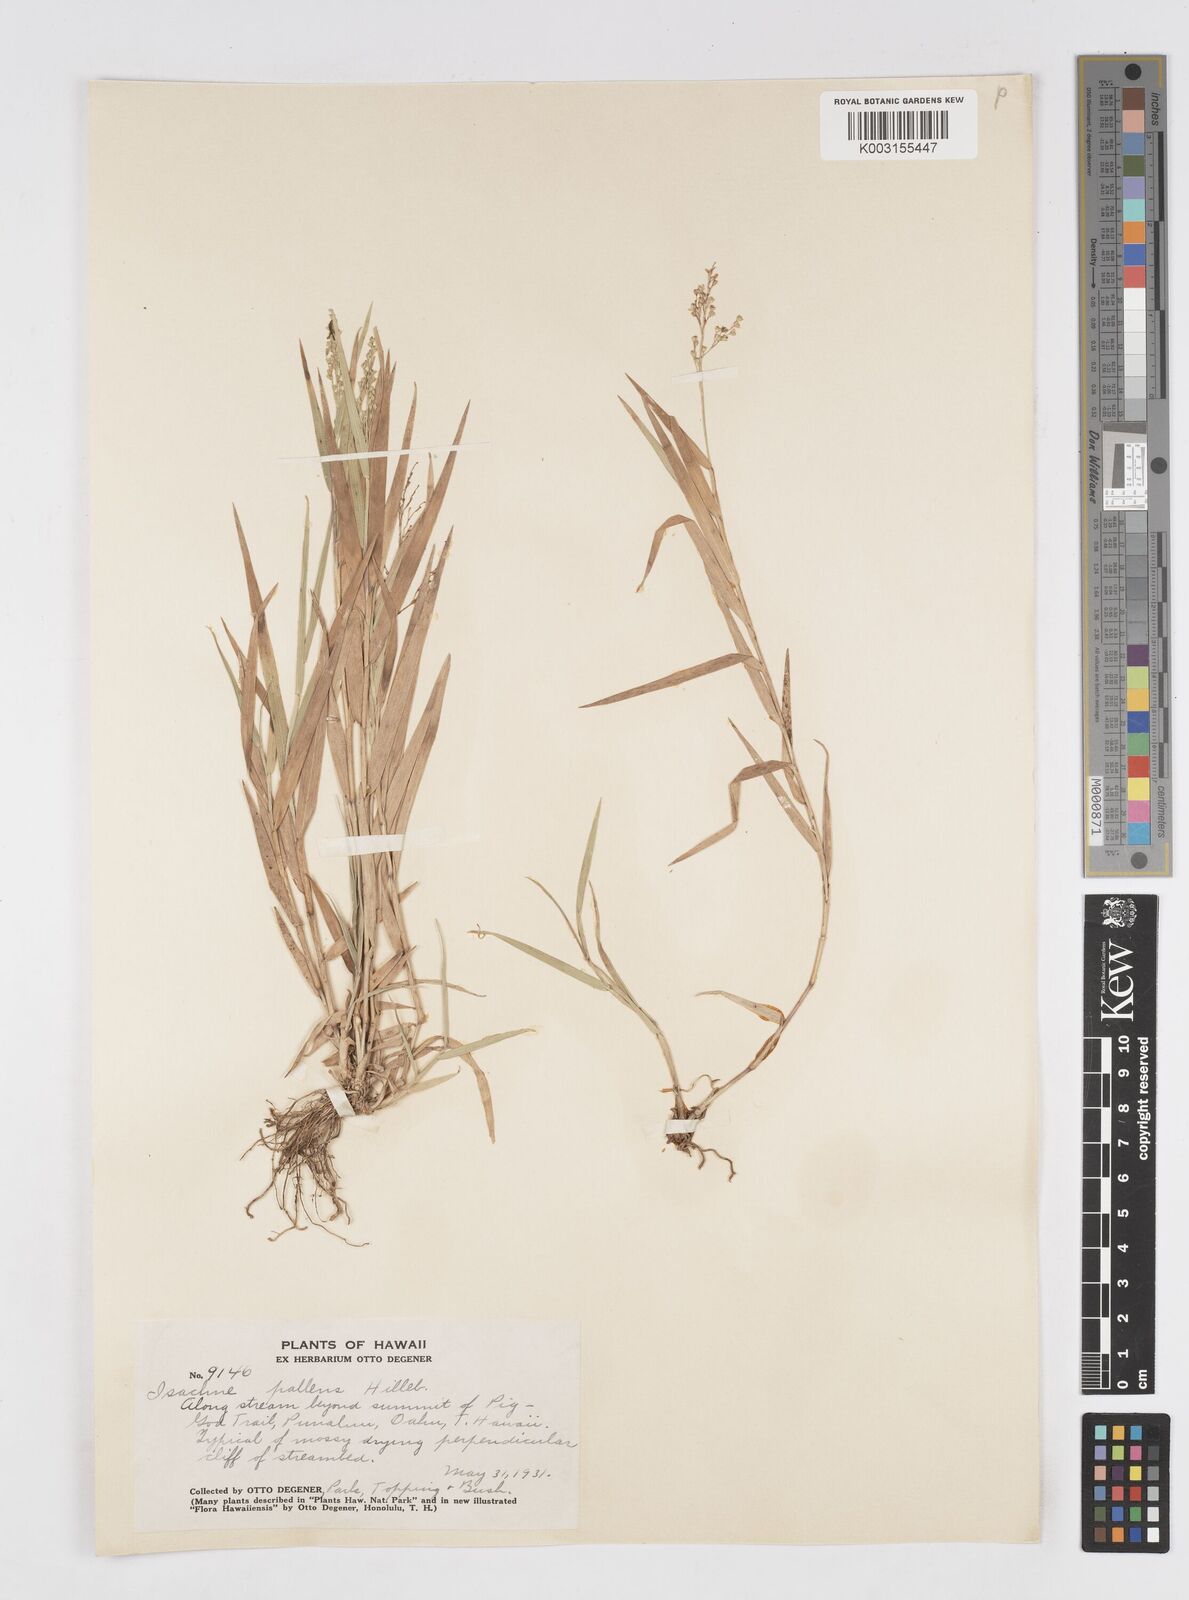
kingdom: Plantae
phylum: Tracheophyta
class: Liliopsida
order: Poales
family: Poaceae
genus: Isachne
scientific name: Isachne pallens
